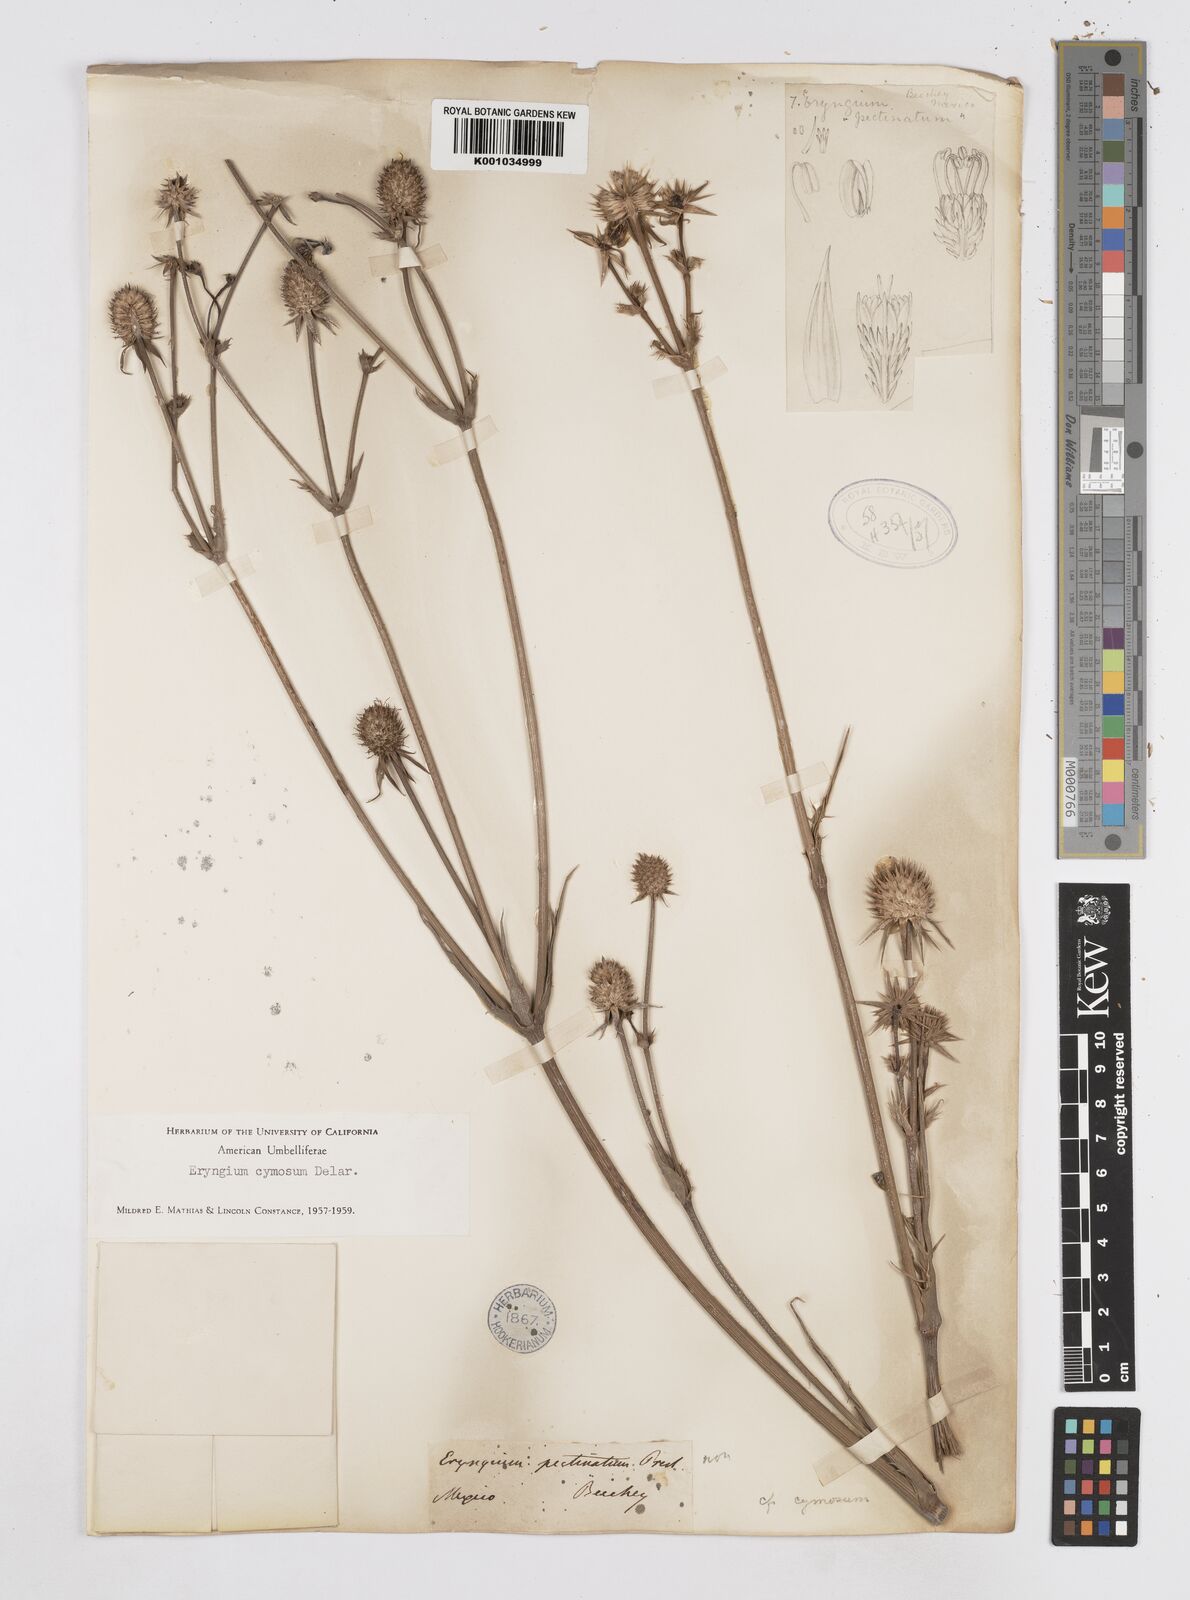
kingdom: Plantae
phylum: Tracheophyta
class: Magnoliopsida
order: Apiales
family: Apiaceae
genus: Eryngium
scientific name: Eryngium cymosum
